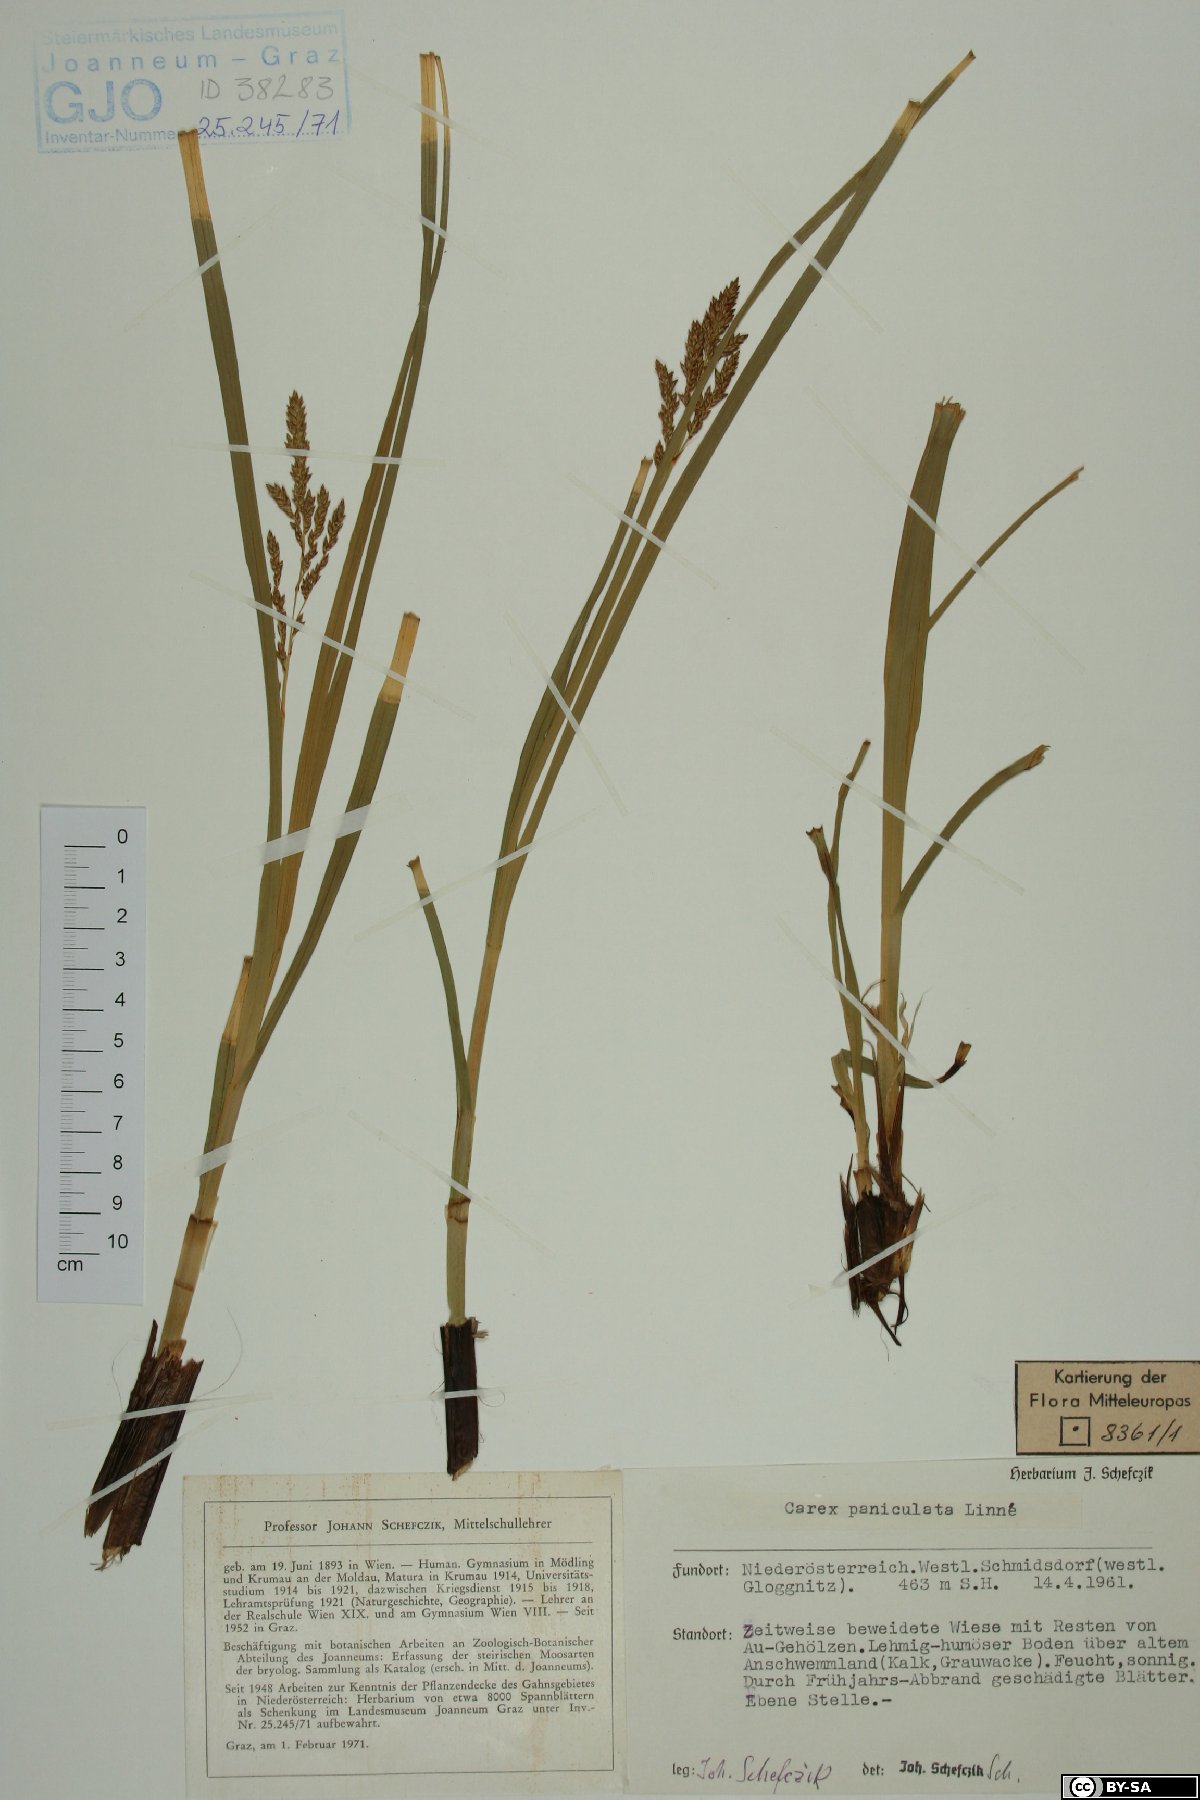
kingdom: Plantae
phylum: Tracheophyta
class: Liliopsida
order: Poales
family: Cyperaceae
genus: Carex
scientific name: Carex paniculata
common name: Greater tussock-sedge
